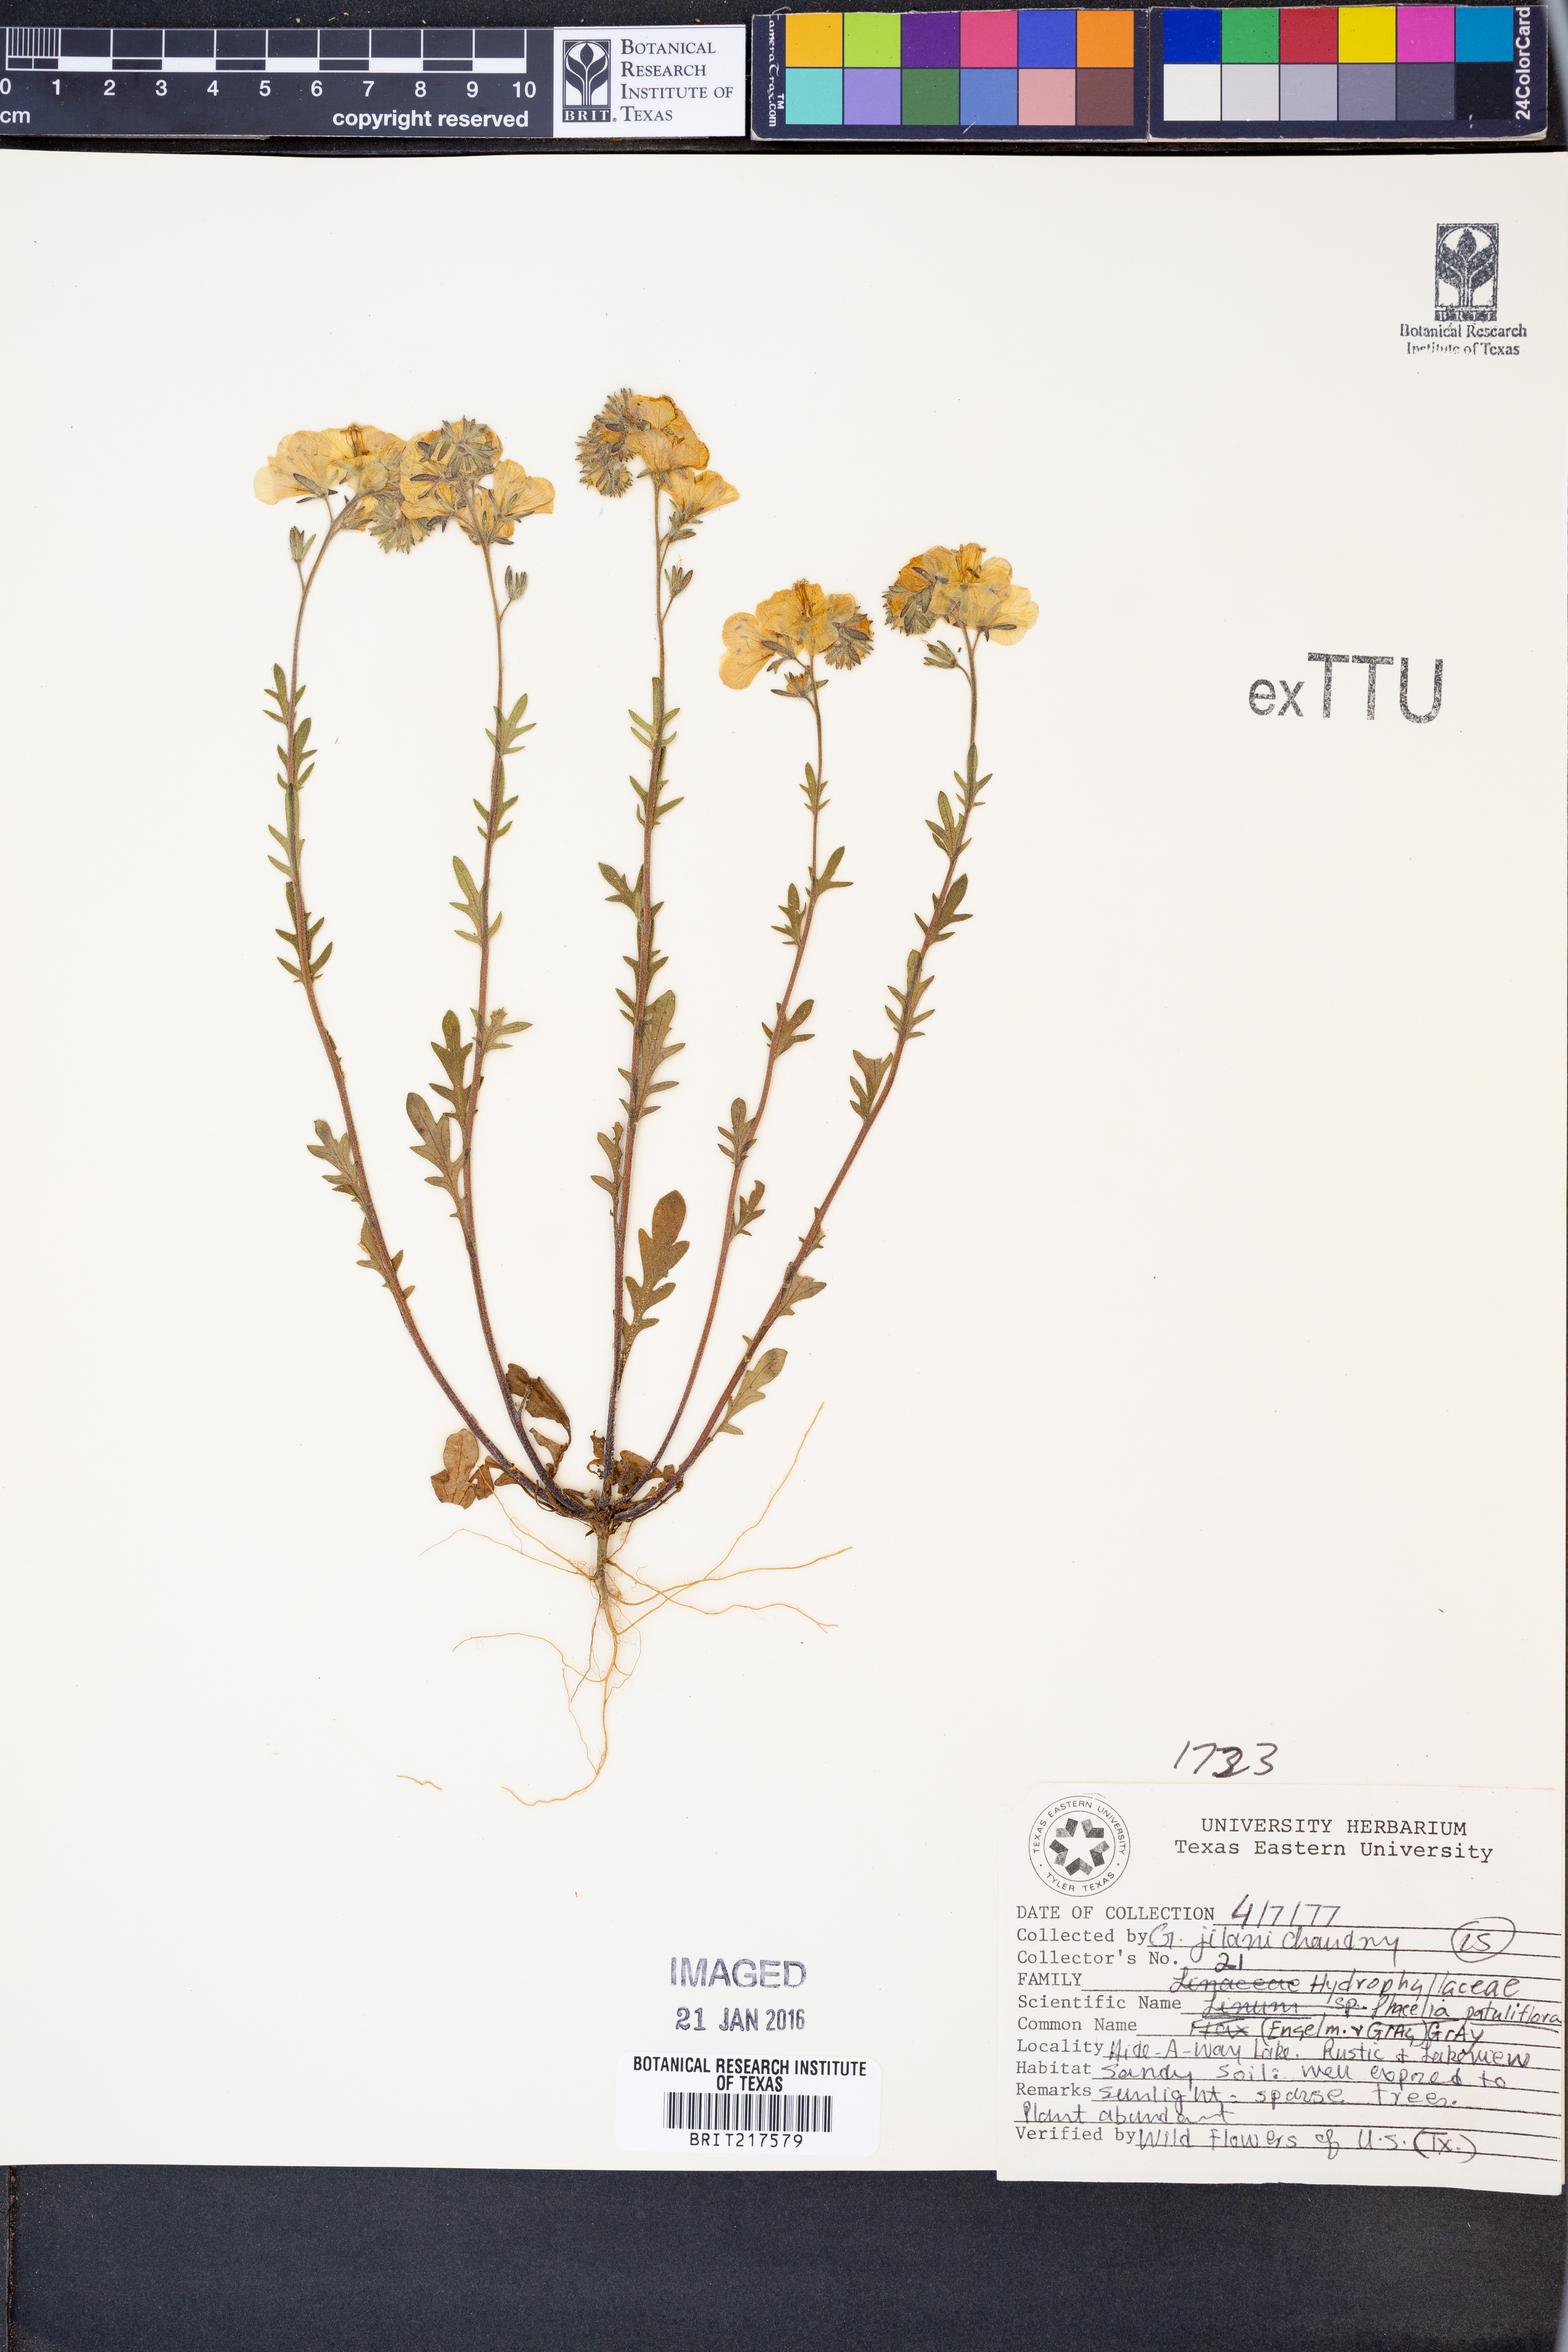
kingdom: Plantae
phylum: Tracheophyta
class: Magnoliopsida
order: Boraginales
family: Hydrophyllaceae
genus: Phacelia
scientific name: Phacelia patuliflora
